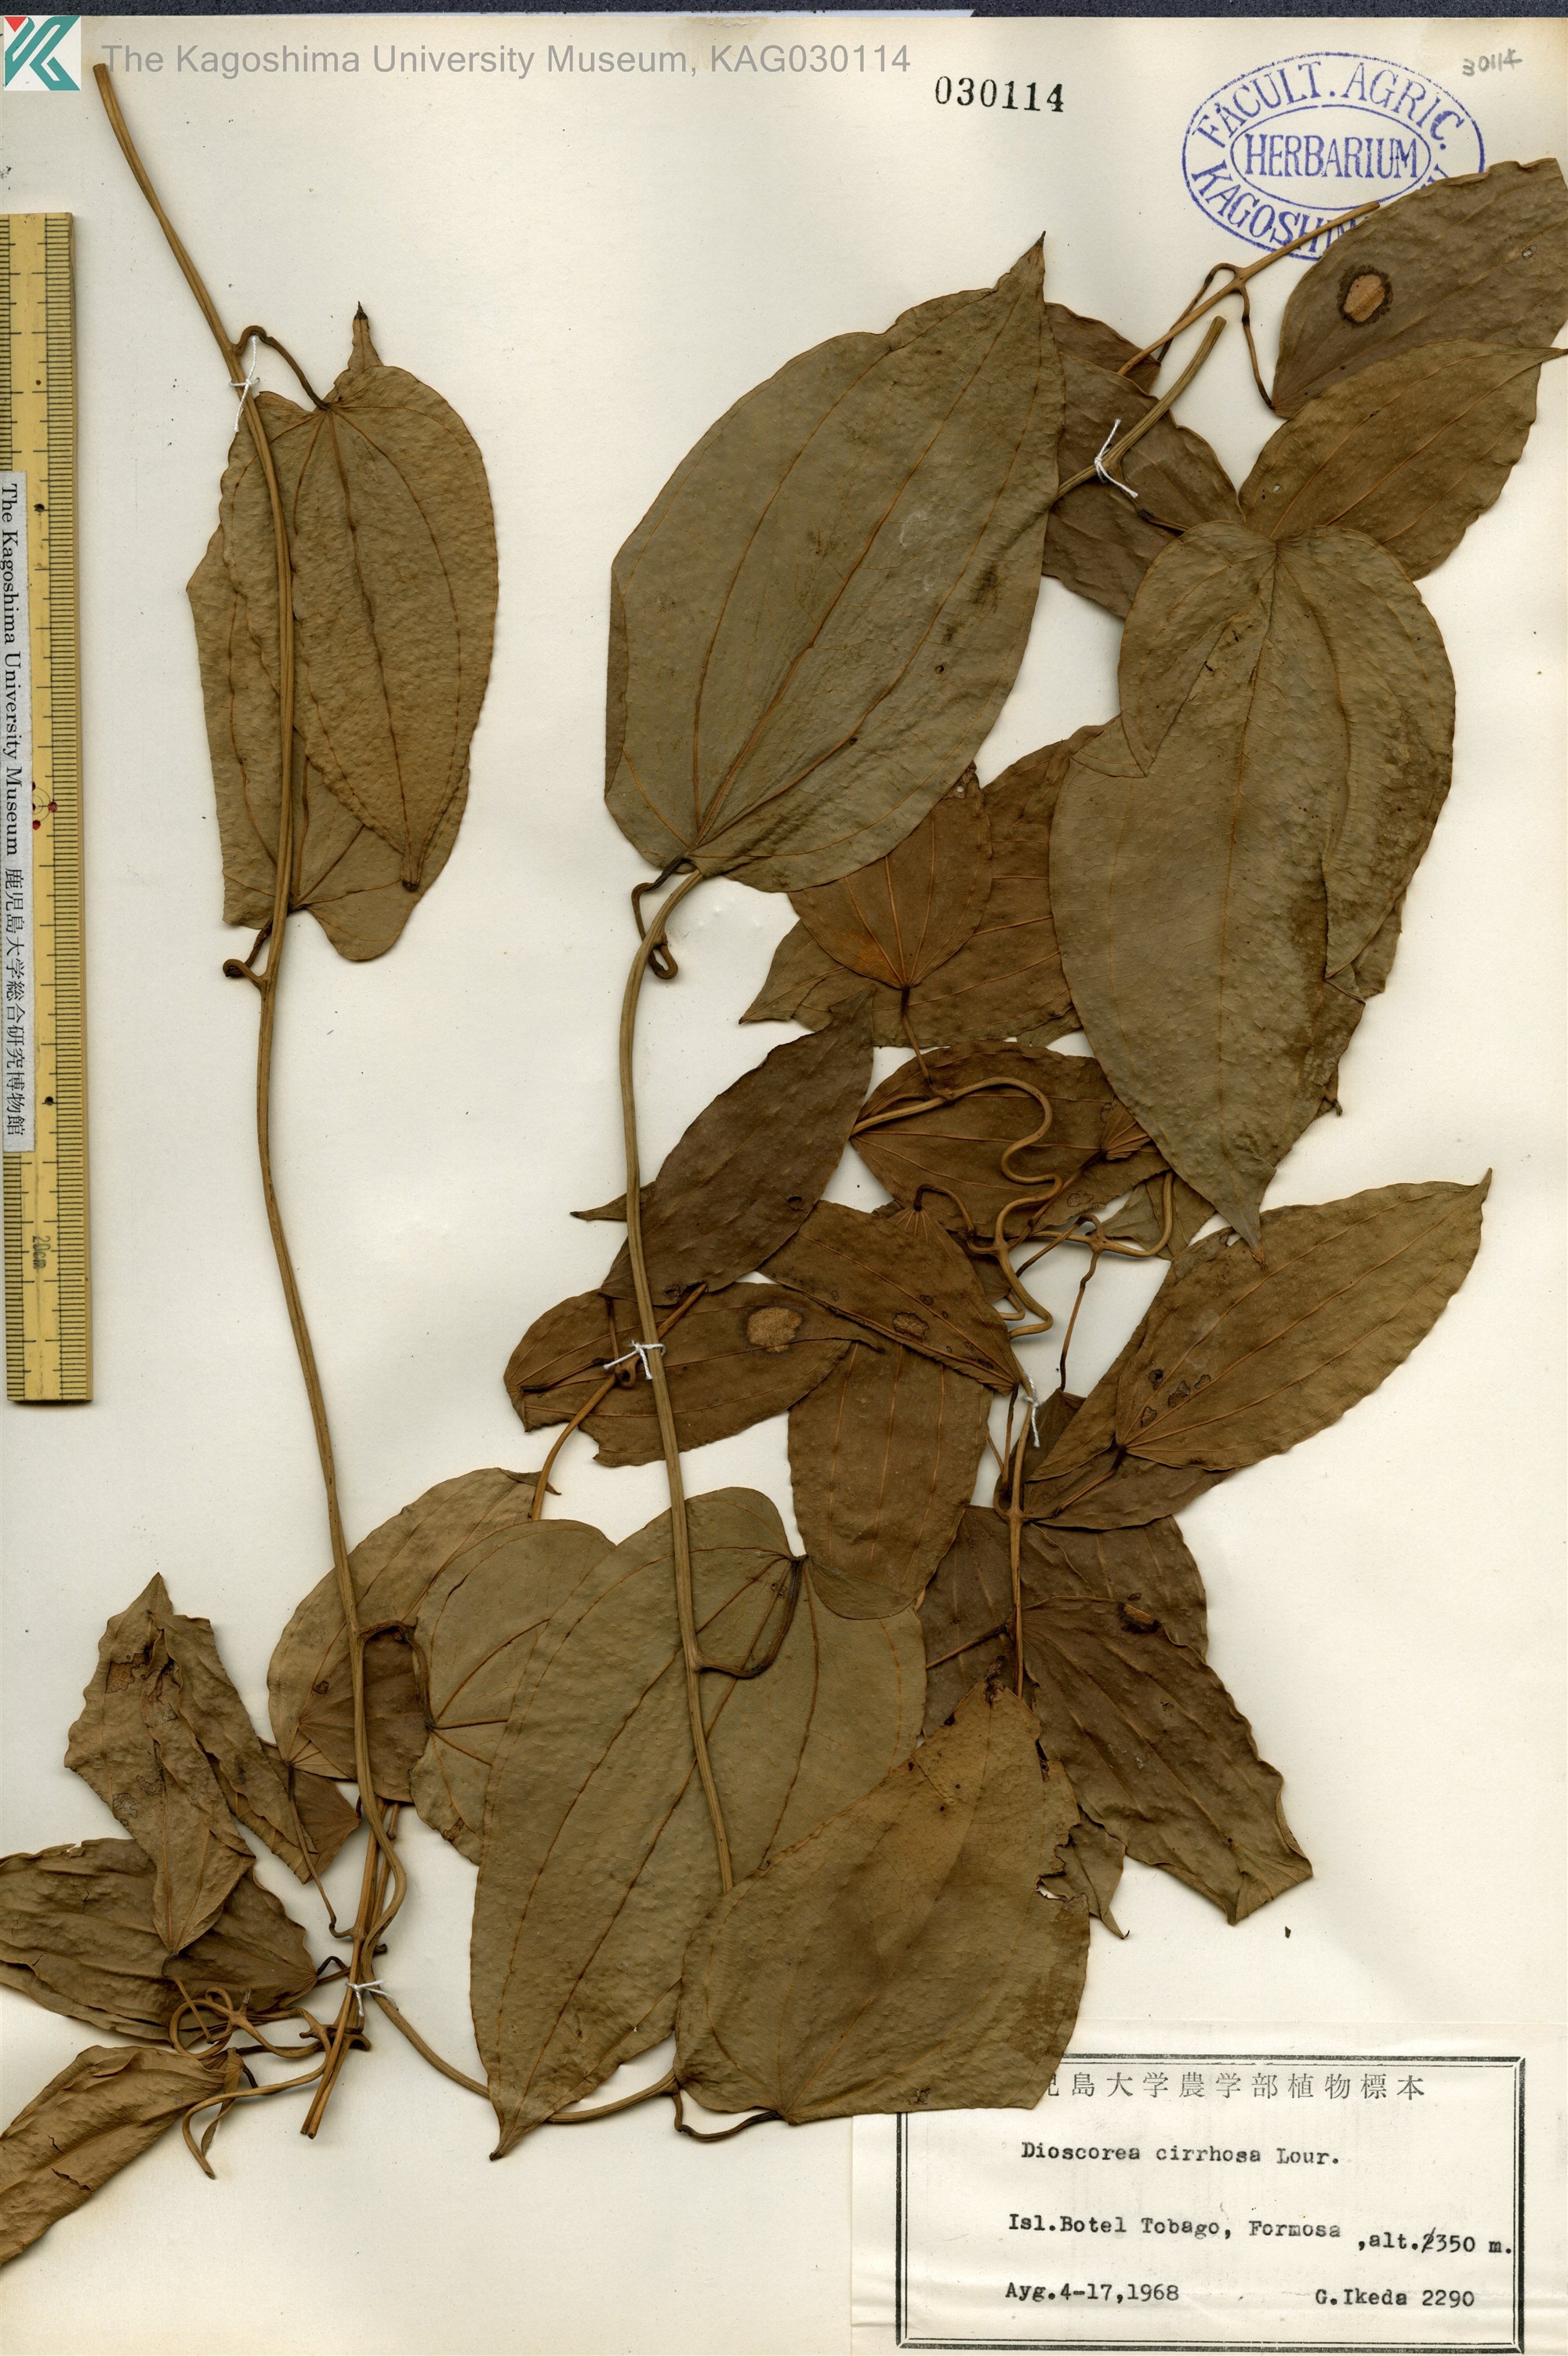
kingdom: Plantae
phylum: Tracheophyta
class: Liliopsida
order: Dioscoreales
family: Dioscoreaceae
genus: Dioscorea
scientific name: Dioscorea cirrhosa
